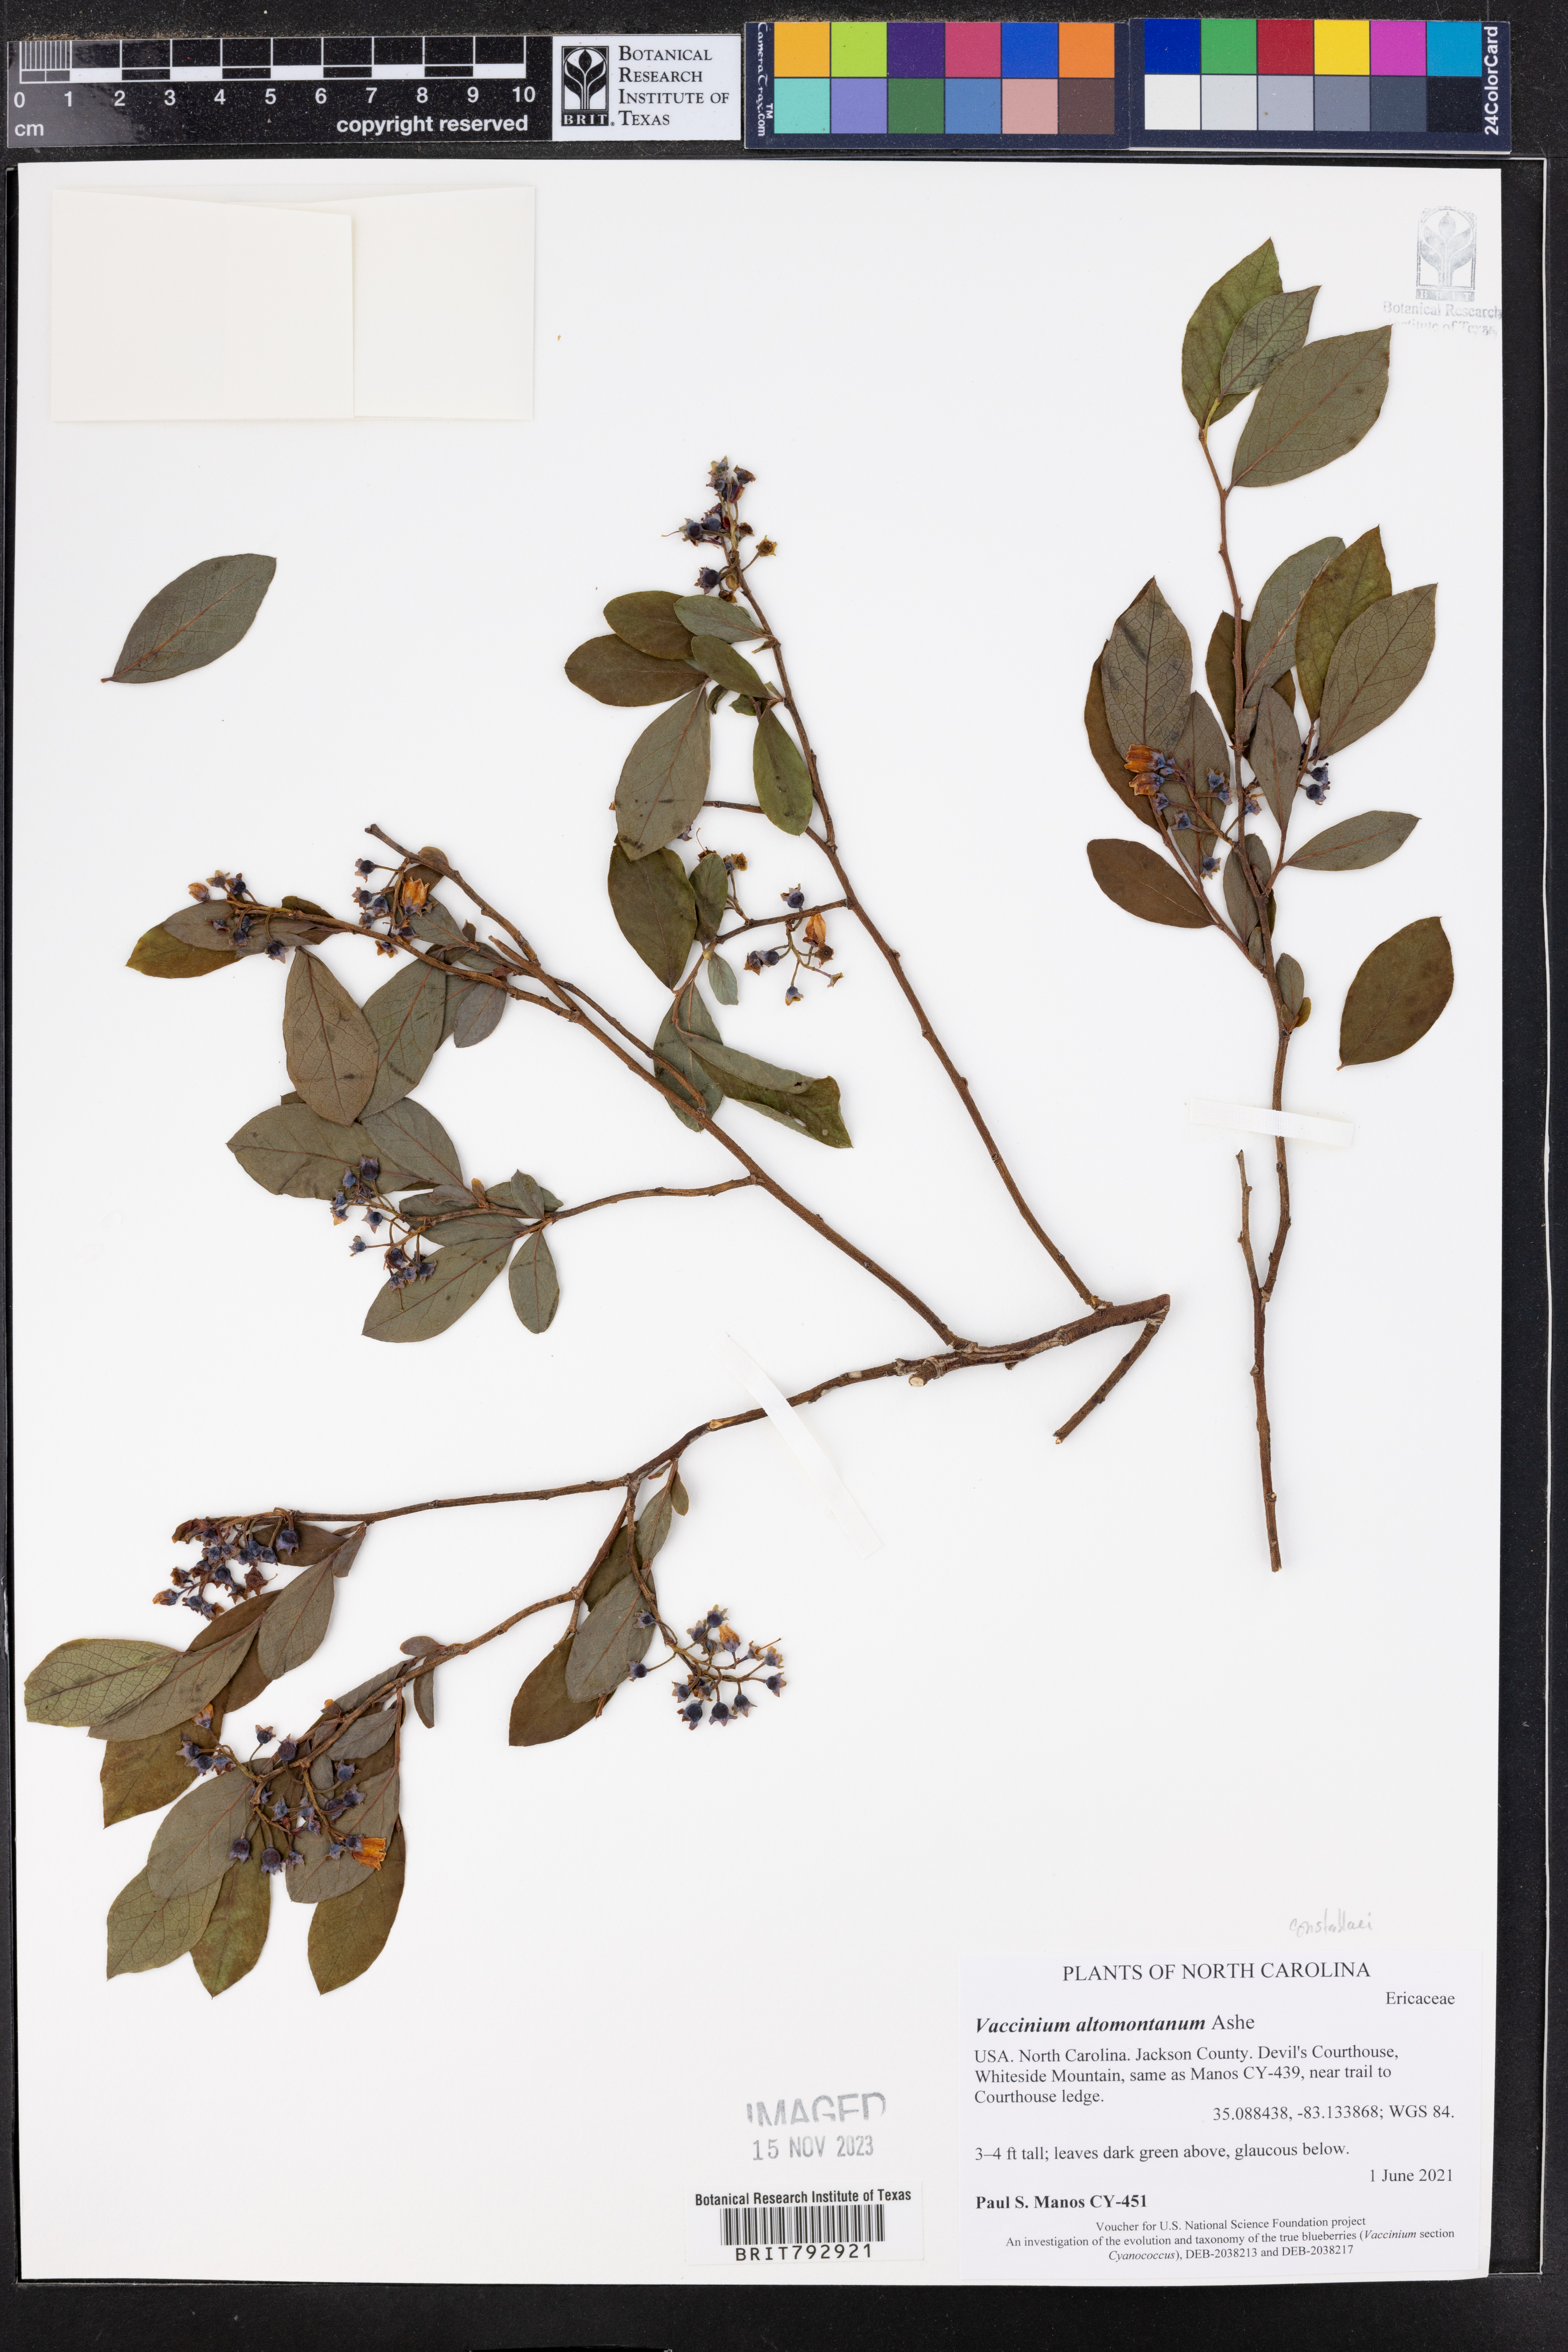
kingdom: Plantae
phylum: Tracheophyta
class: Magnoliopsida
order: Ericales
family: Ericaceae
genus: Vaccinium
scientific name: Vaccinium pallidum
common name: Blue ridge blueberry
